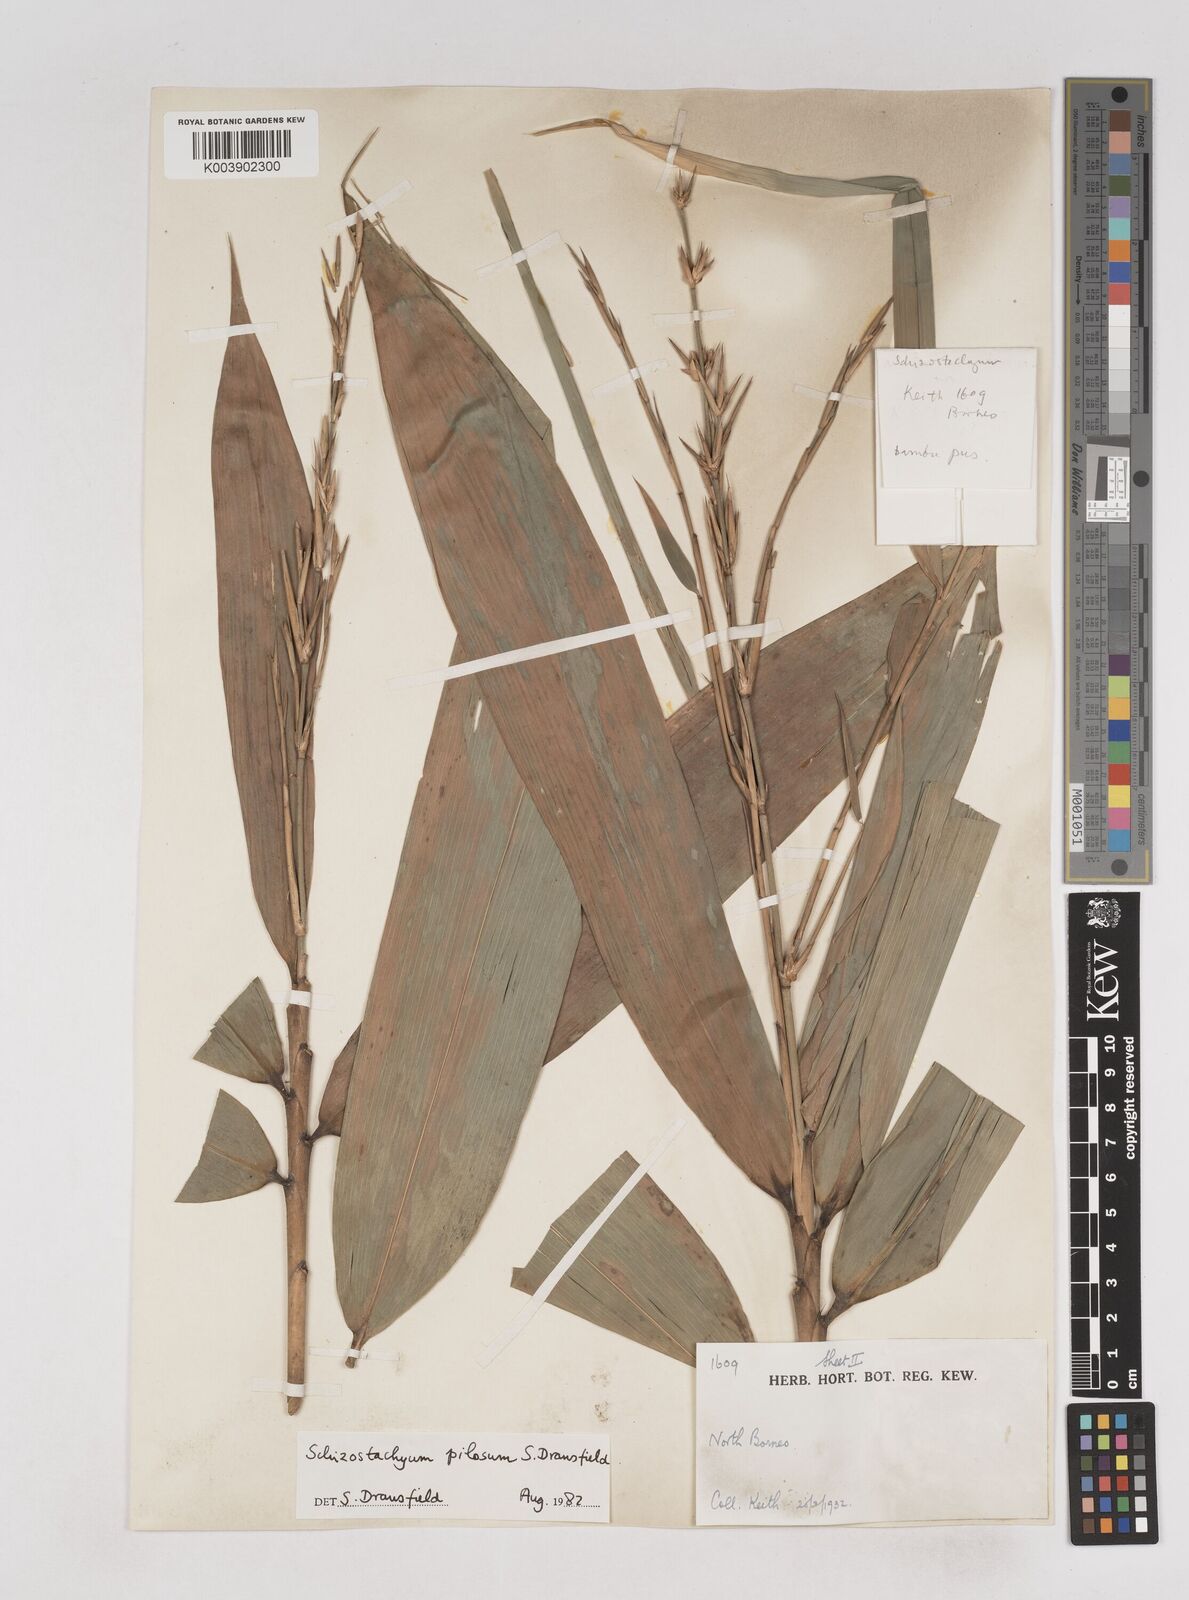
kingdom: Plantae
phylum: Tracheophyta
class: Liliopsida
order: Poales
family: Poaceae
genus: Schizostachyum
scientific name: Schizostachyum pilosum
